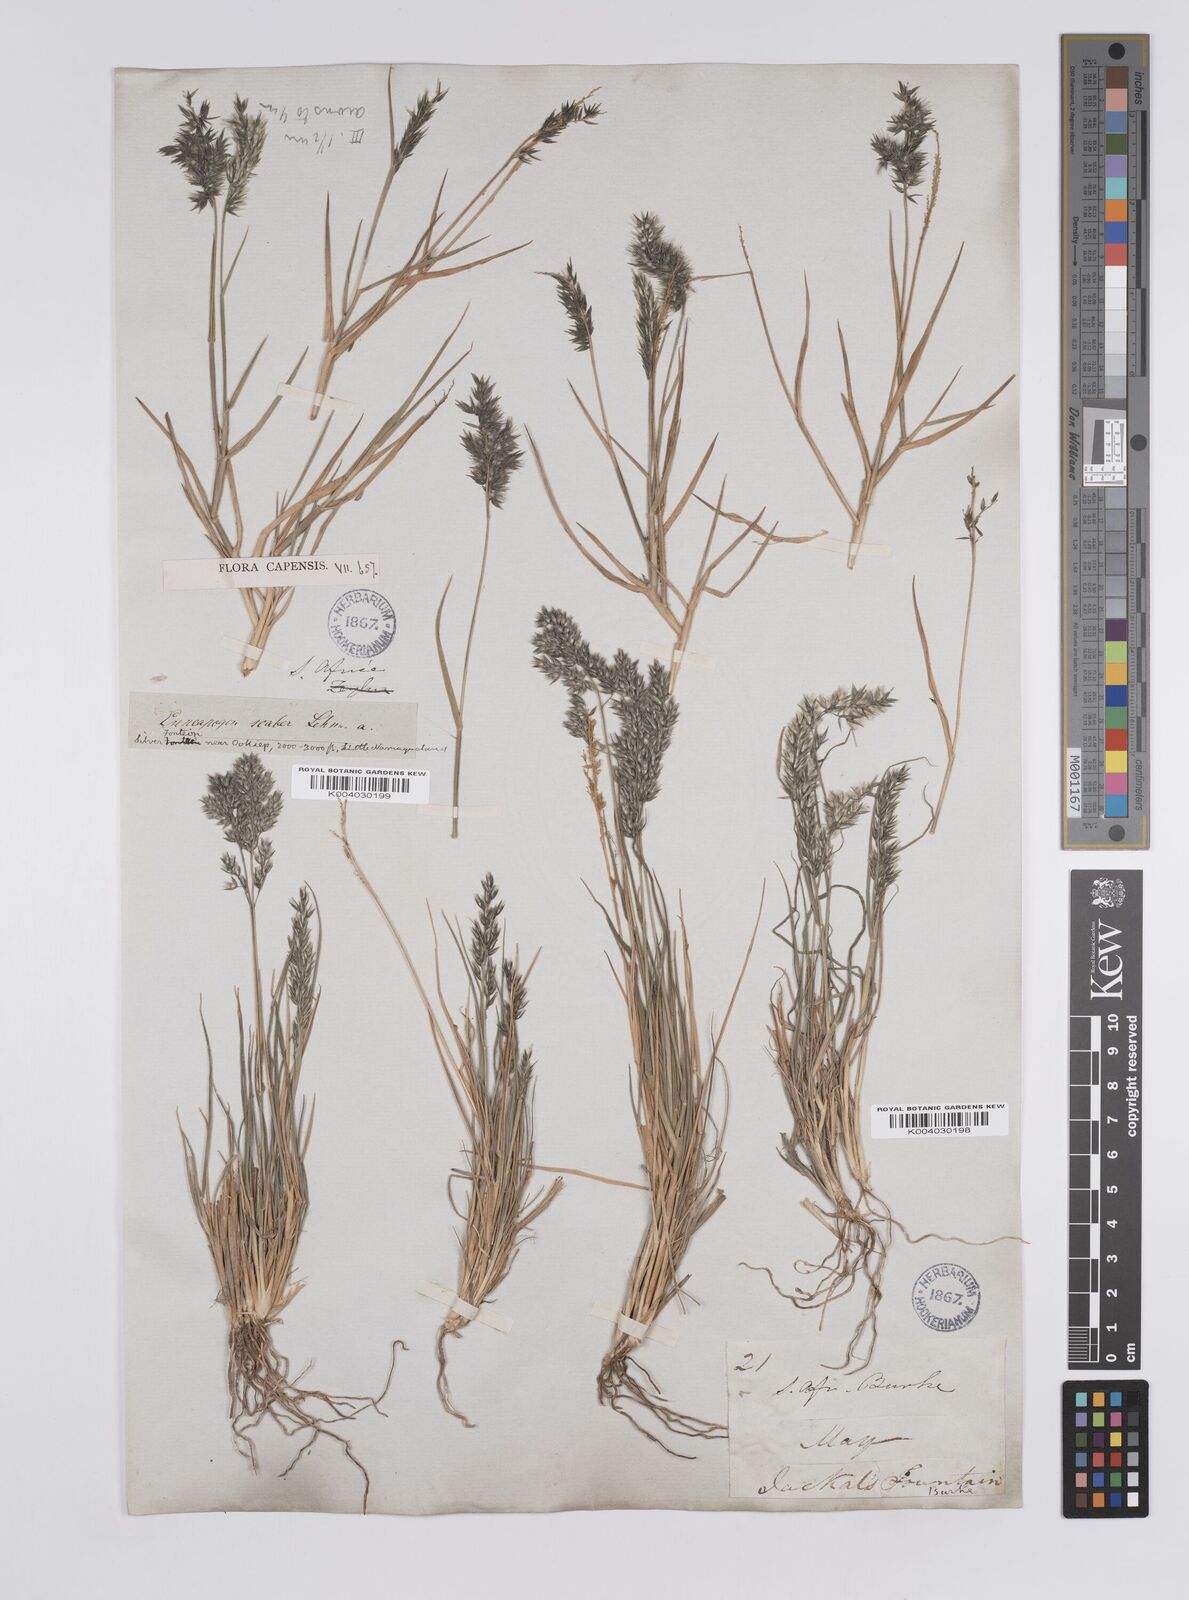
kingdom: Plantae
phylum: Tracheophyta
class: Liliopsida
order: Poales
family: Poaceae
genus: Enneapogon
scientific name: Enneapogon scaber
